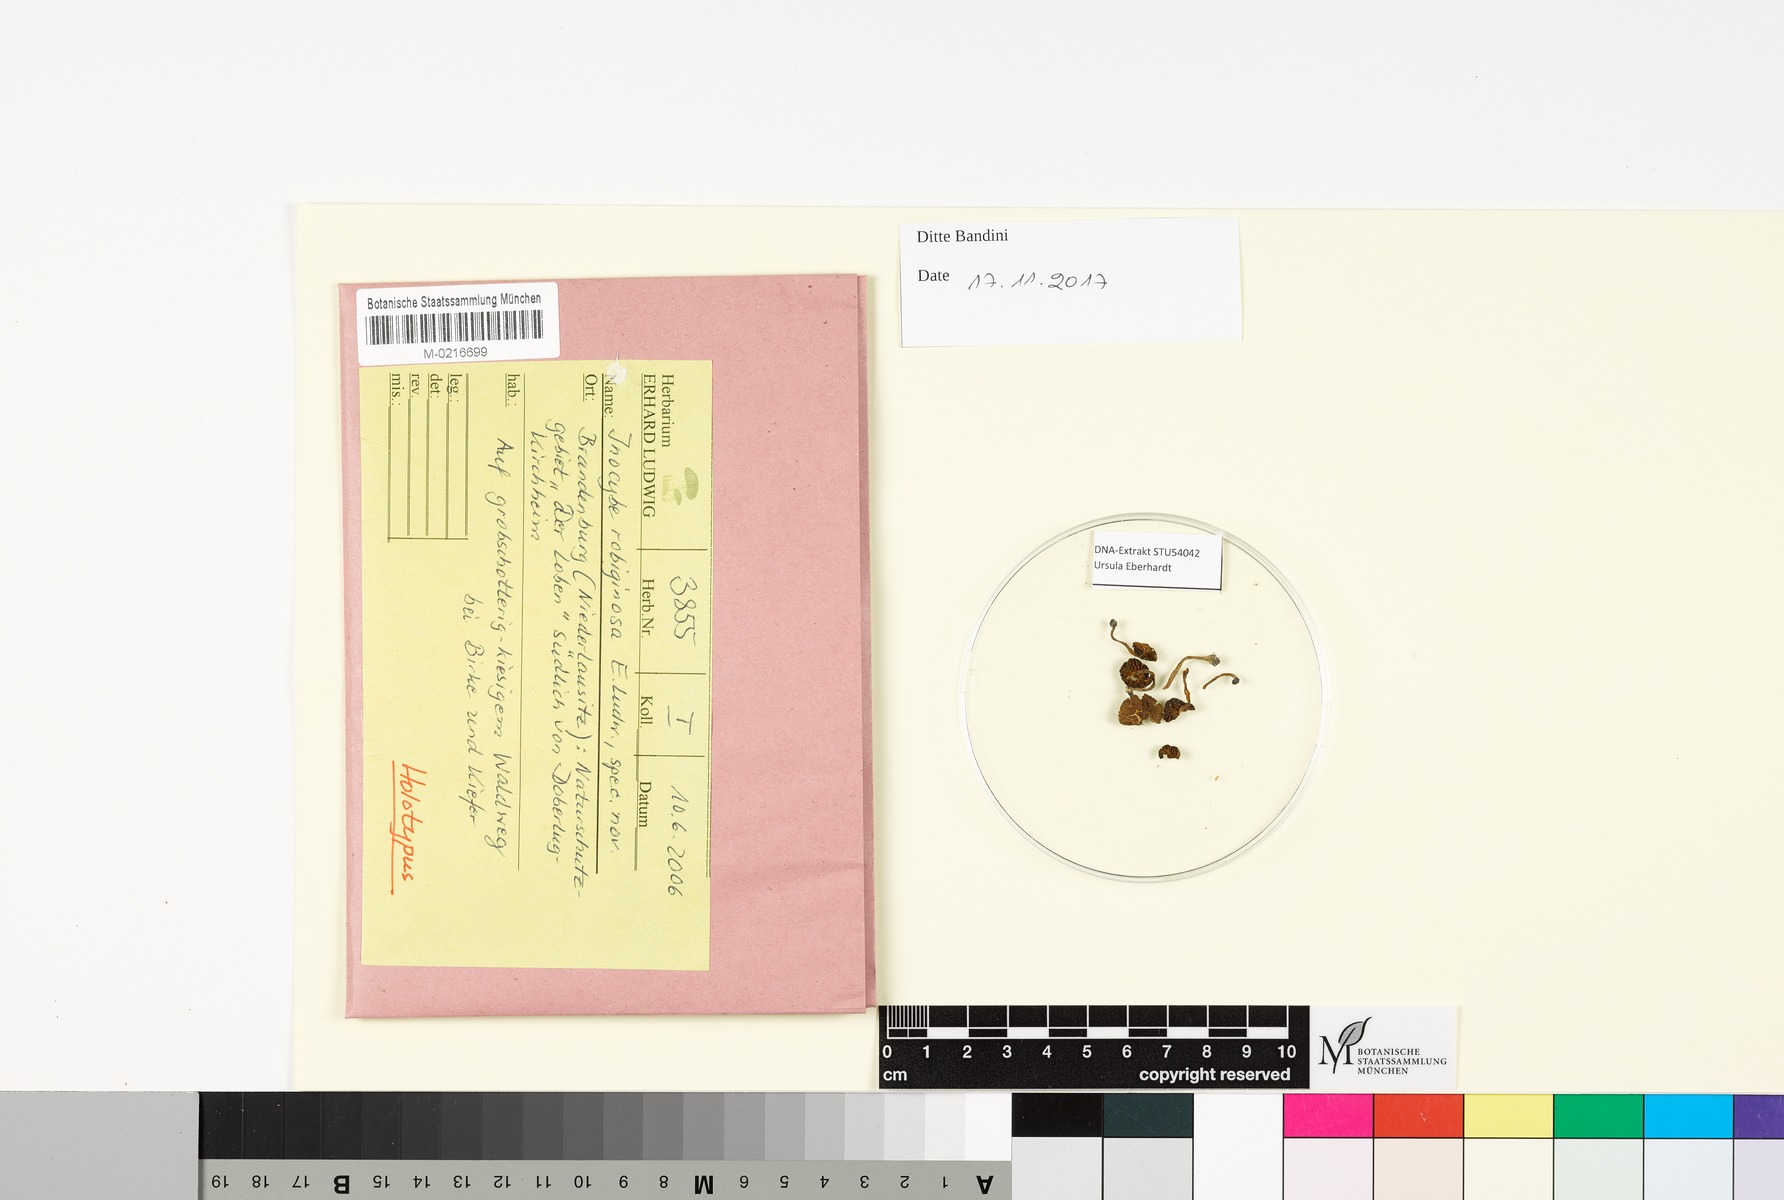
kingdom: Fungi
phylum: Basidiomycota
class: Agaricomycetes
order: Agaricales
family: Inocybaceae
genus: Inocybe
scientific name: Inocybe robiginosa
